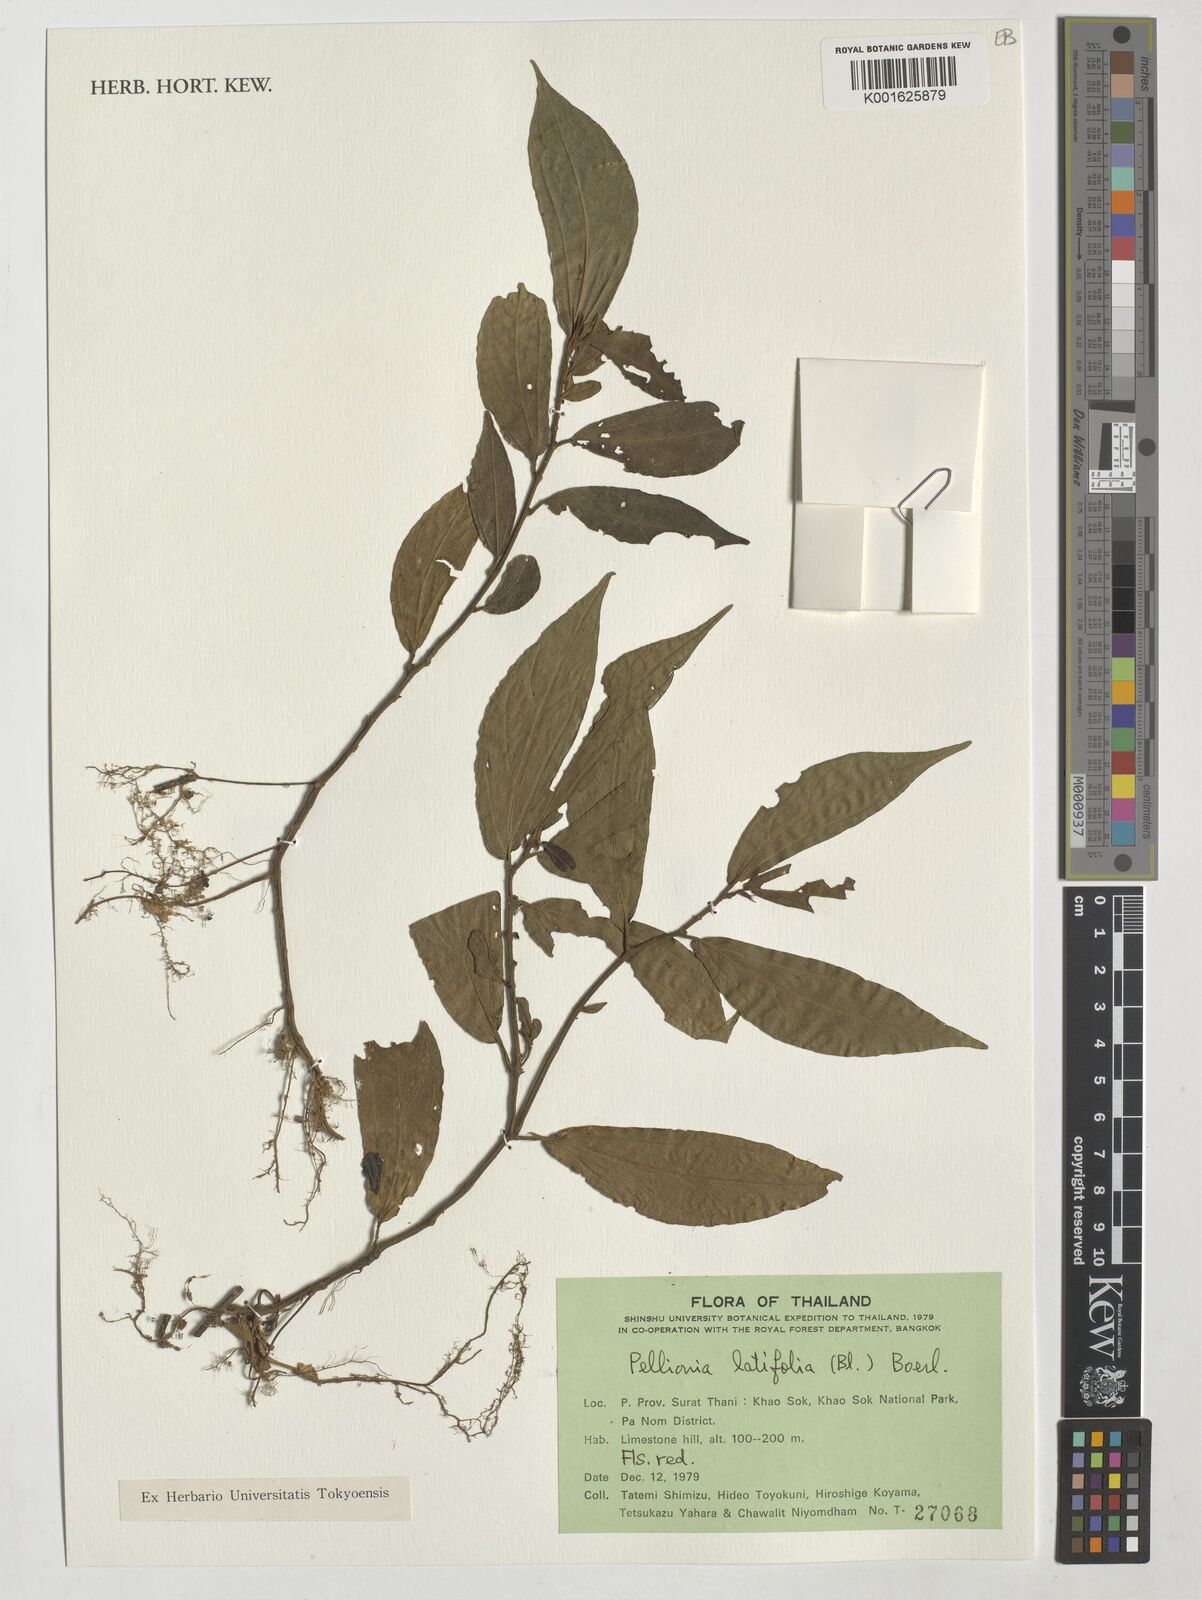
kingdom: Plantae
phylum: Tracheophyta
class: Magnoliopsida
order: Rosales
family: Urticaceae
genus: Elatostema
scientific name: Elatostema latifolium
